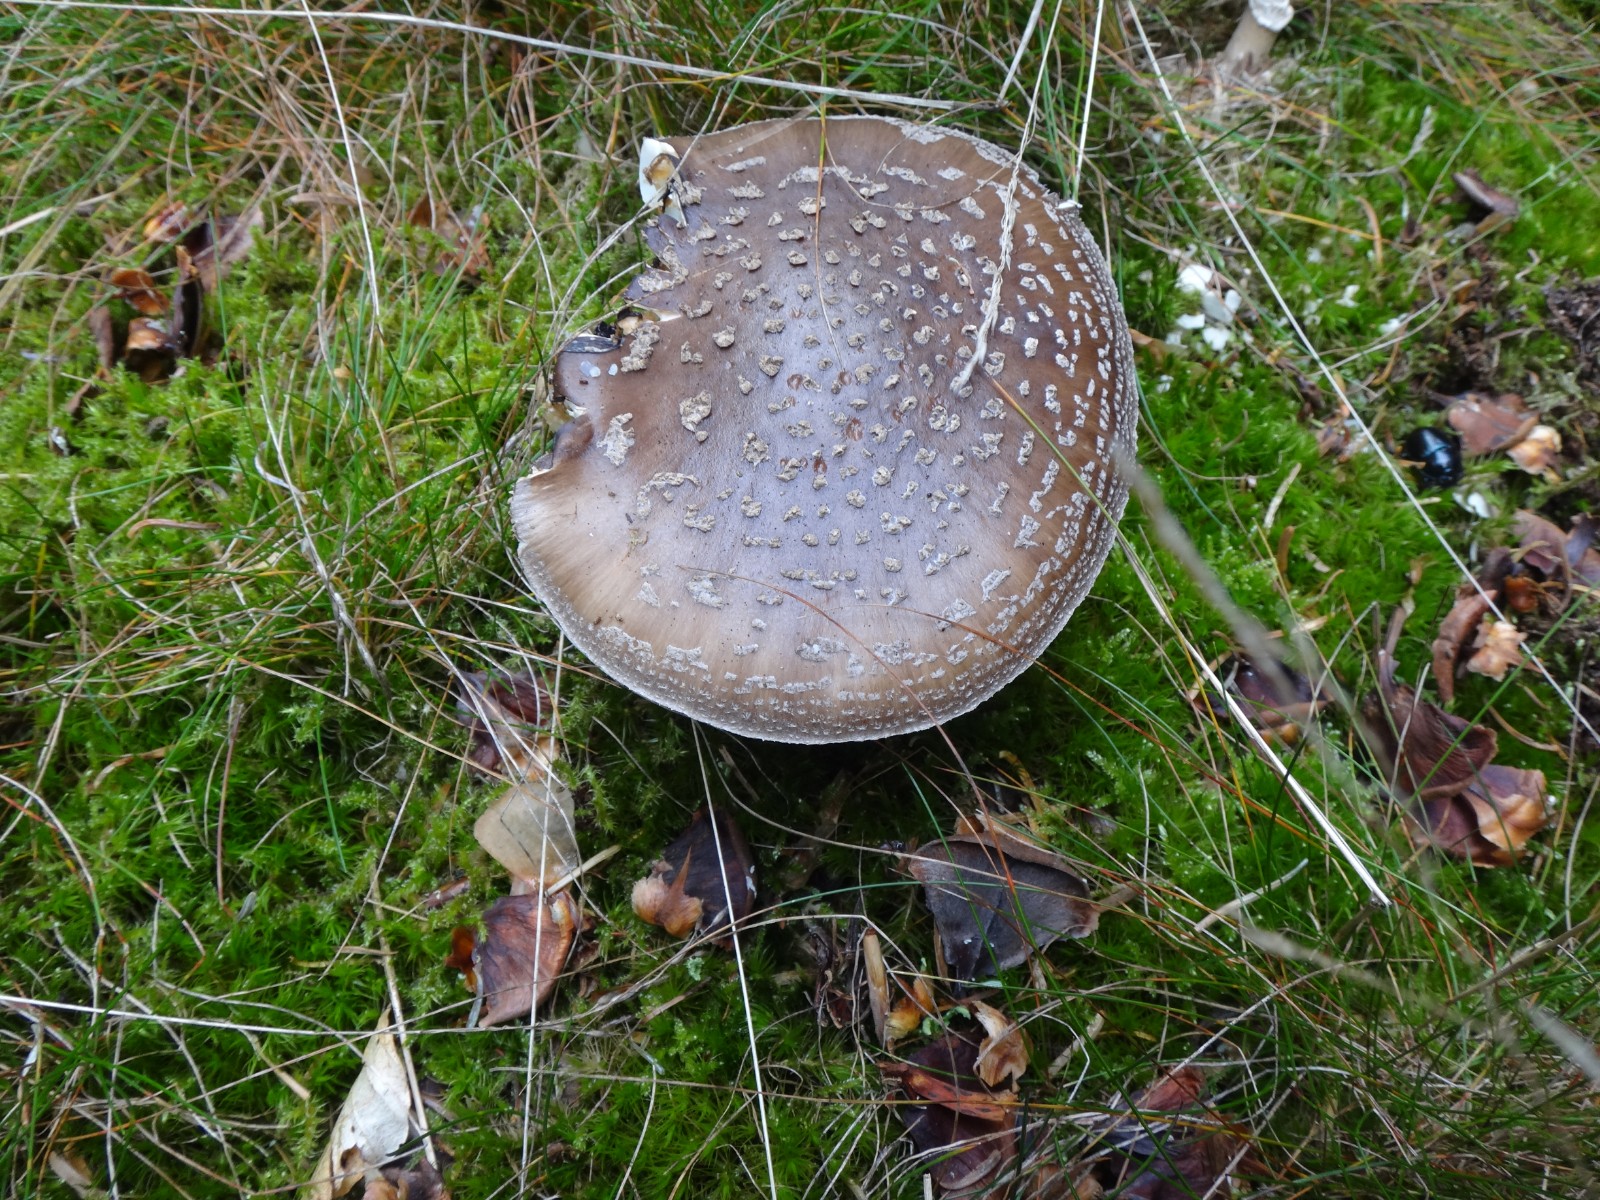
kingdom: Fungi
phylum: Basidiomycota
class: Agaricomycetes
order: Agaricales
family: Amanitaceae
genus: Amanita
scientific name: Amanita pantherina
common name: panter-fluesvamp
